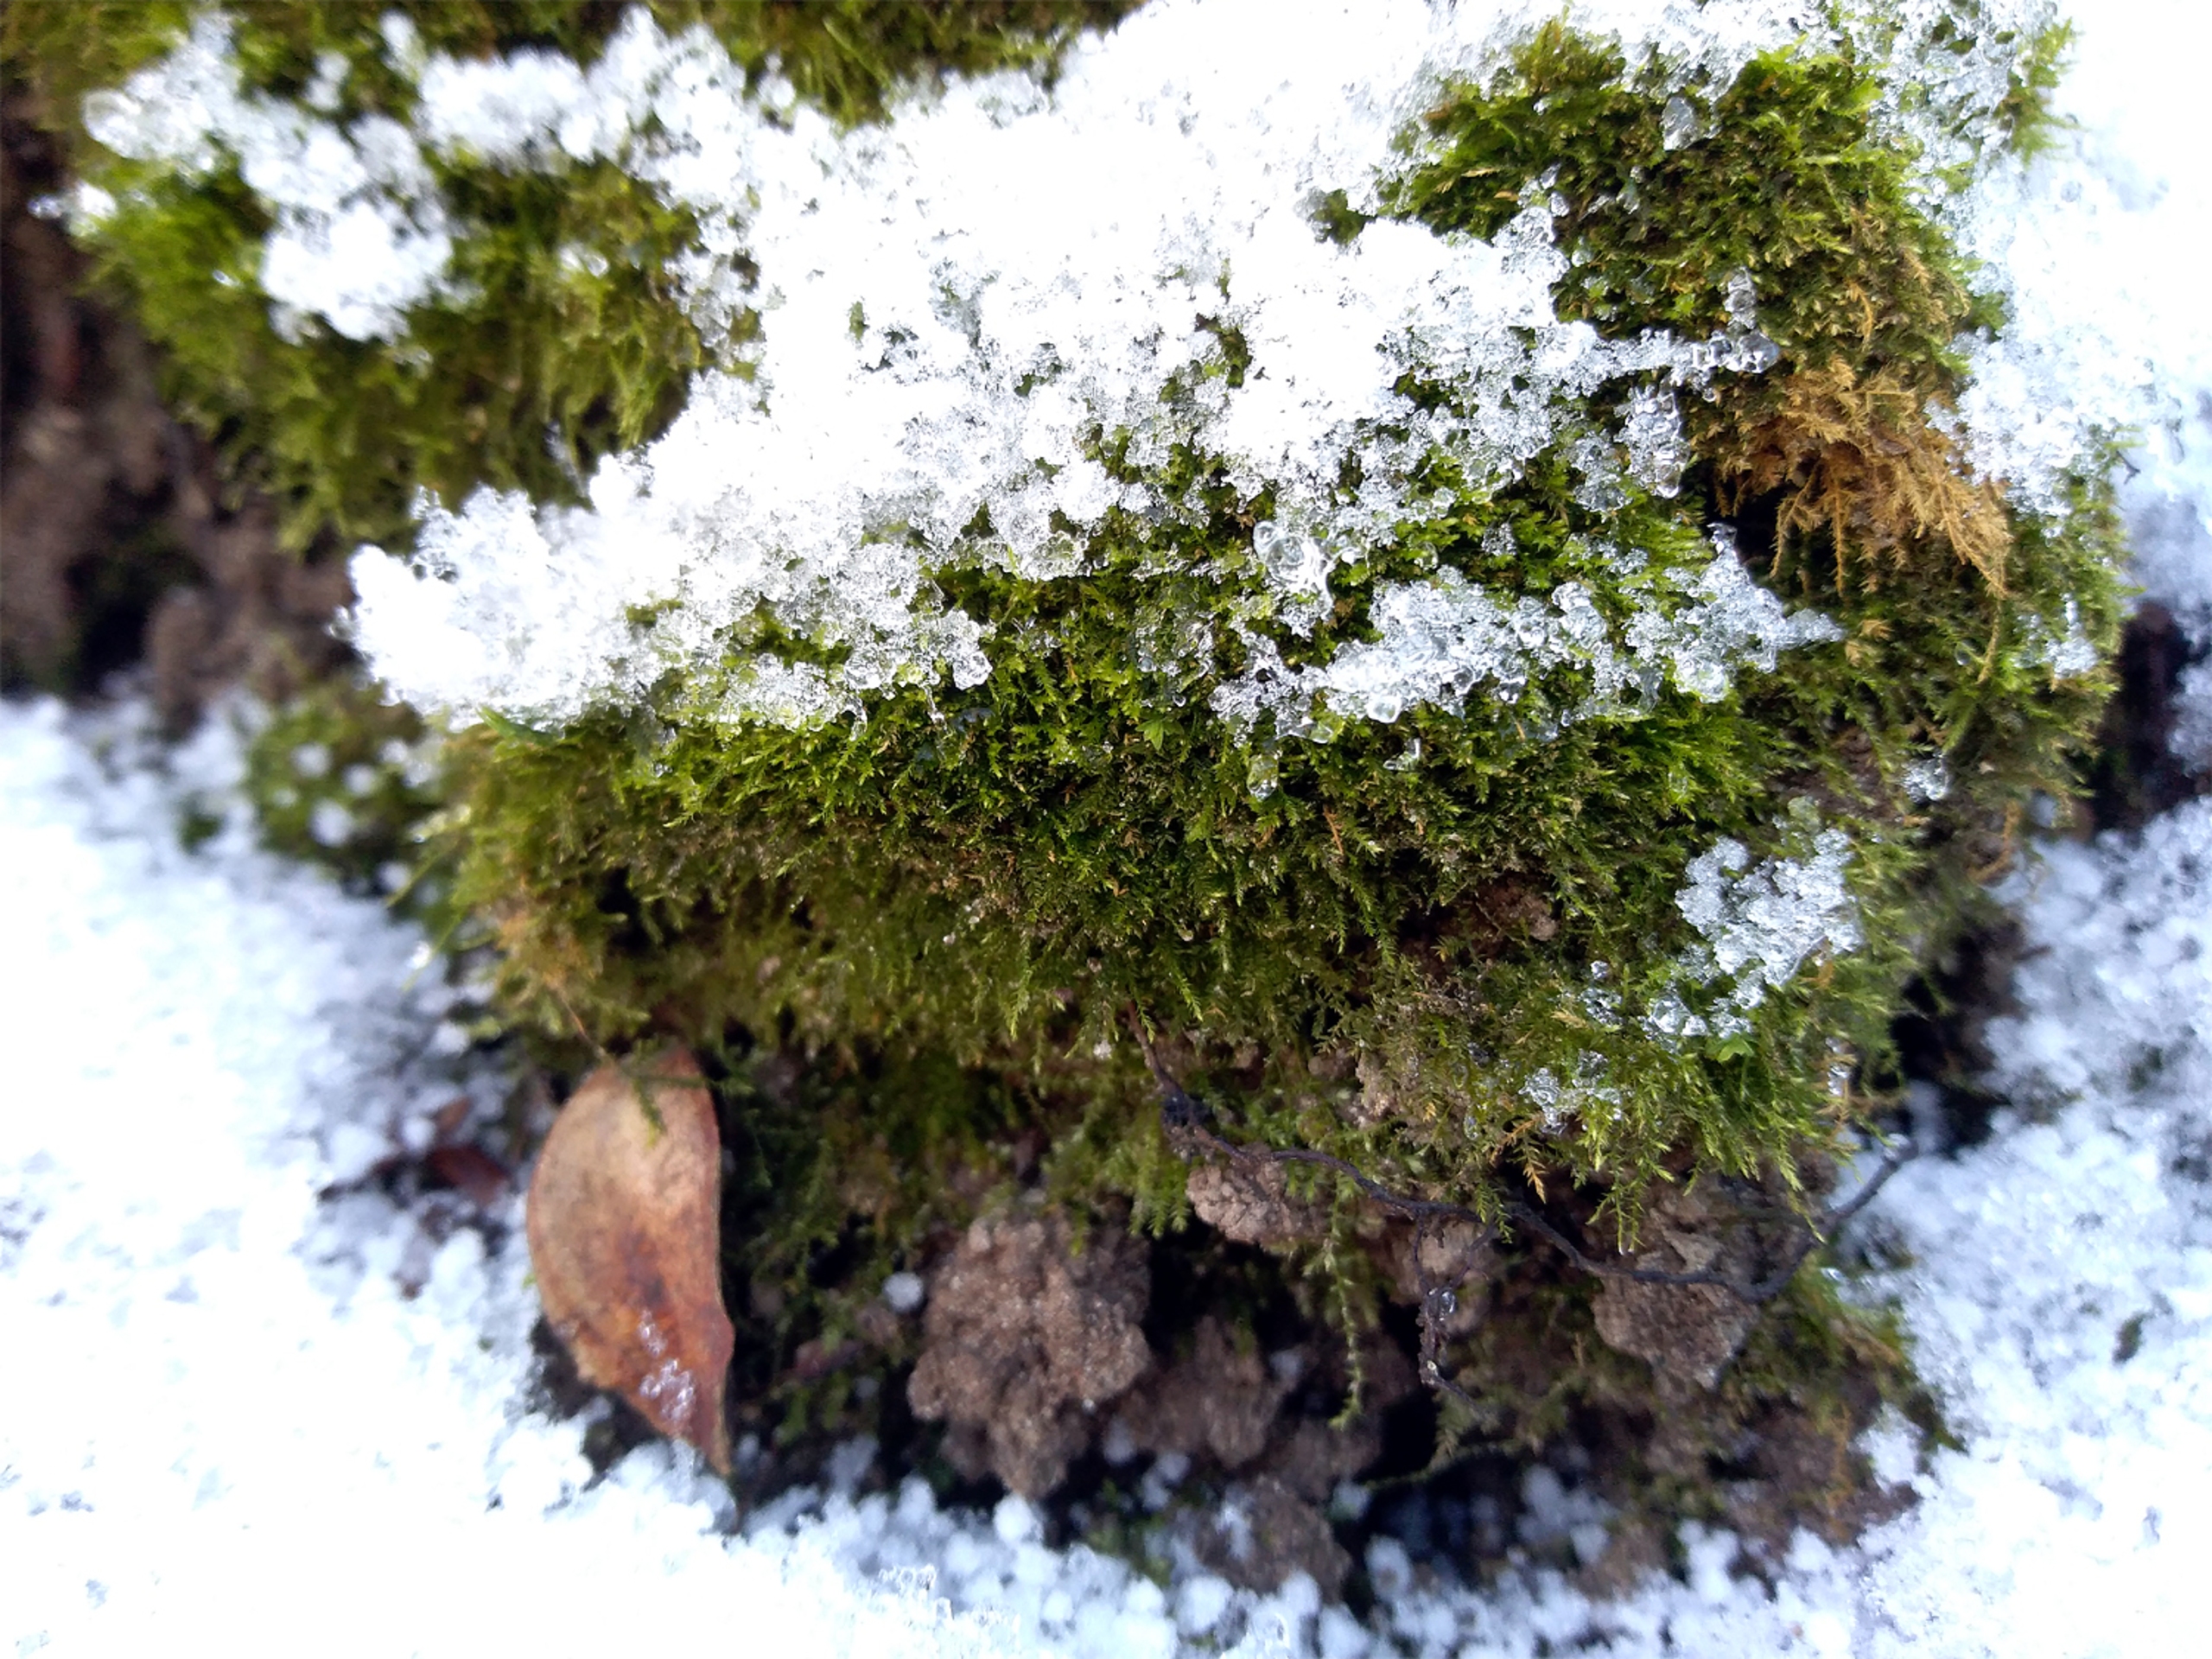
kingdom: Plantae
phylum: Bryophyta
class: Bryopsida
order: Hypnales
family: Brachytheciaceae
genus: Microeurhynchium
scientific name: Microeurhynchium pumilum
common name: Spæd vortetand
